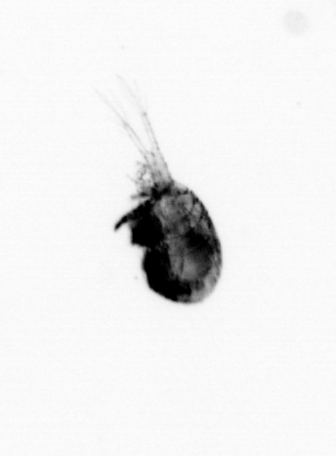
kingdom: Animalia
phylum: Arthropoda
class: Copepoda
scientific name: Copepoda
